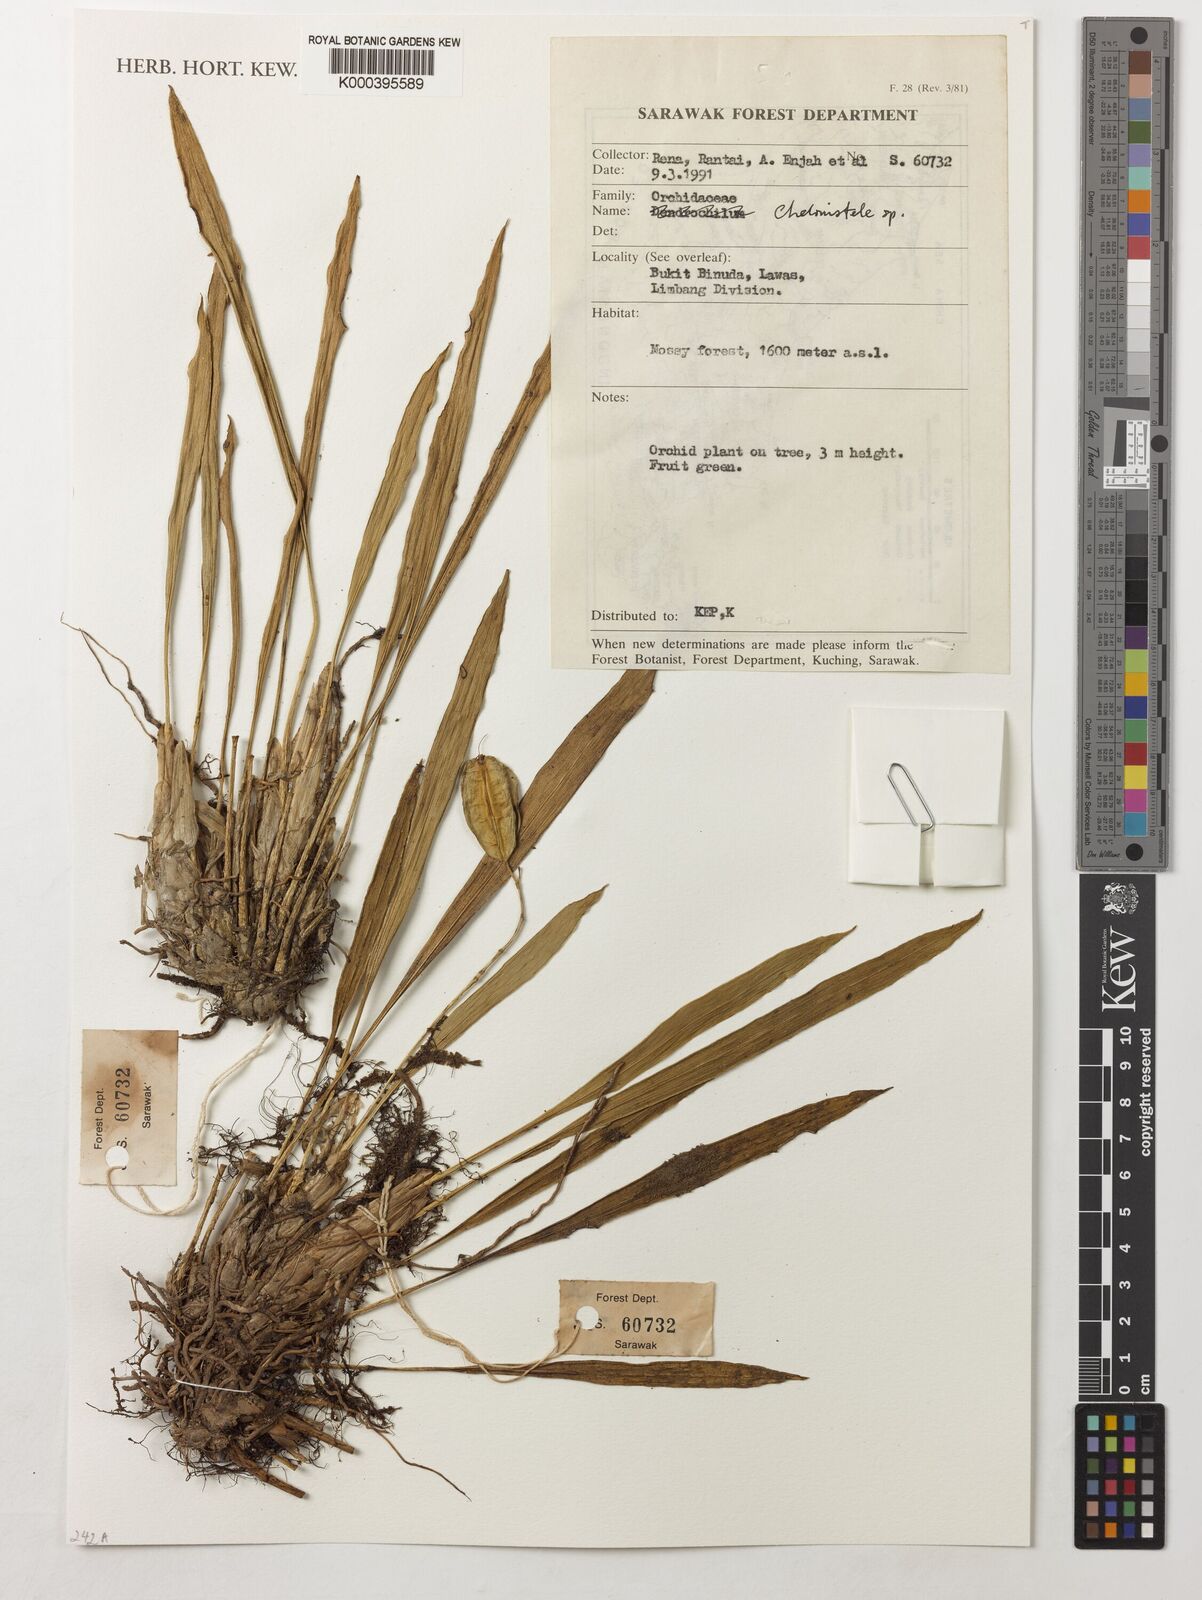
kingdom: Plantae
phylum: Tracheophyta
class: Liliopsida
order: Asparagales
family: Orchidaceae
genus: Coelogyne
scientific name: Coelogyne
